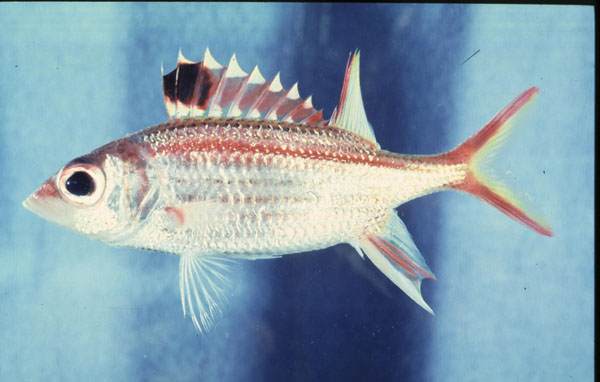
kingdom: Animalia
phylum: Chordata
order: Beryciformes
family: Holocentridae
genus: Neoniphon
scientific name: Neoniphon sammara
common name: Sammara squirrelfish
